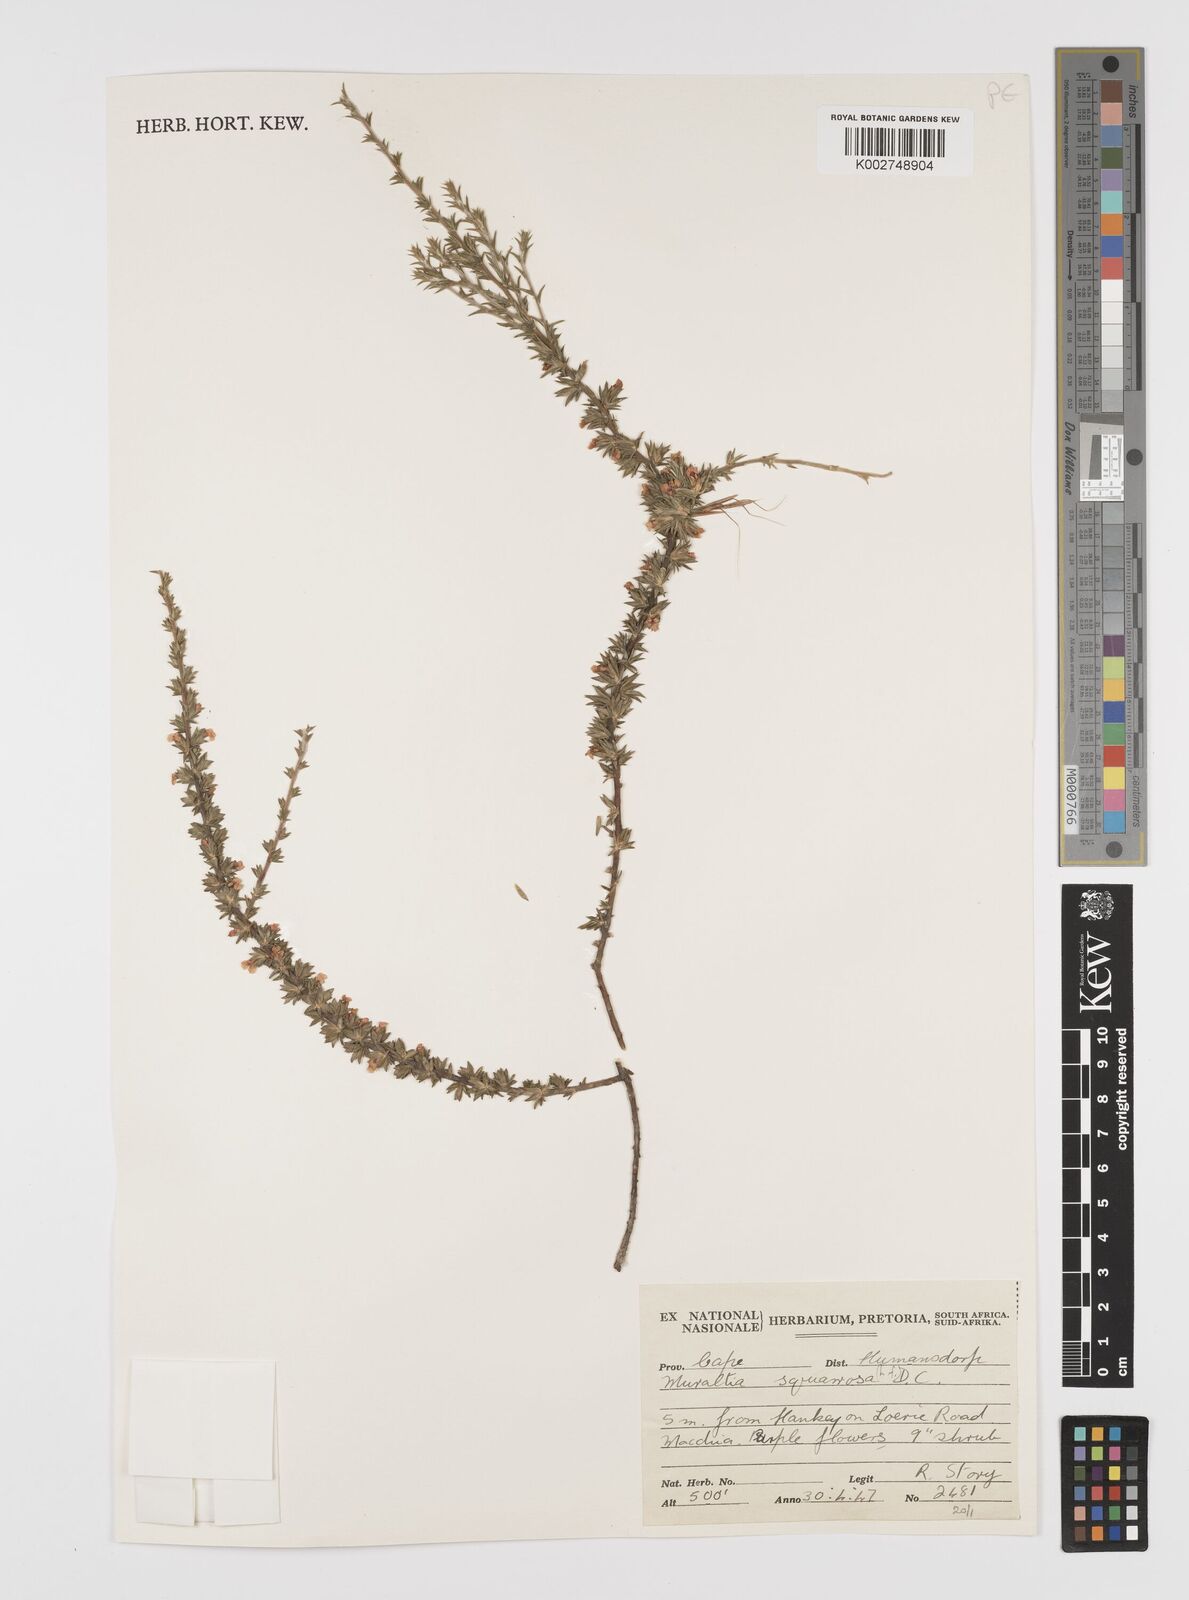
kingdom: Plantae
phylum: Tracheophyta
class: Magnoliopsida
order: Fabales
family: Polygalaceae
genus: Muraltia
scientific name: Muraltia squarrosa
